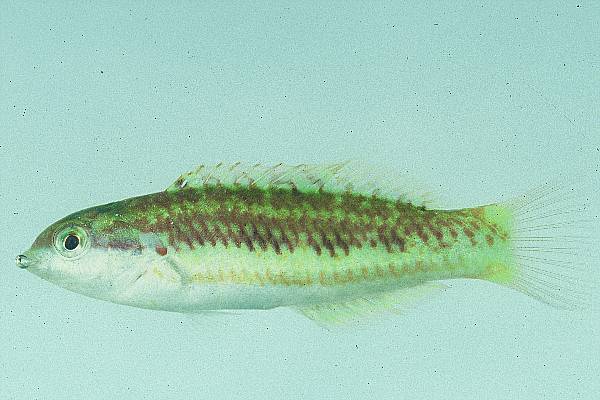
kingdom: Animalia
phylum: Chordata
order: Perciformes
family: Labridae
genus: Thalassoma
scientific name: Thalassoma trilobatum
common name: Christmas wrasse
